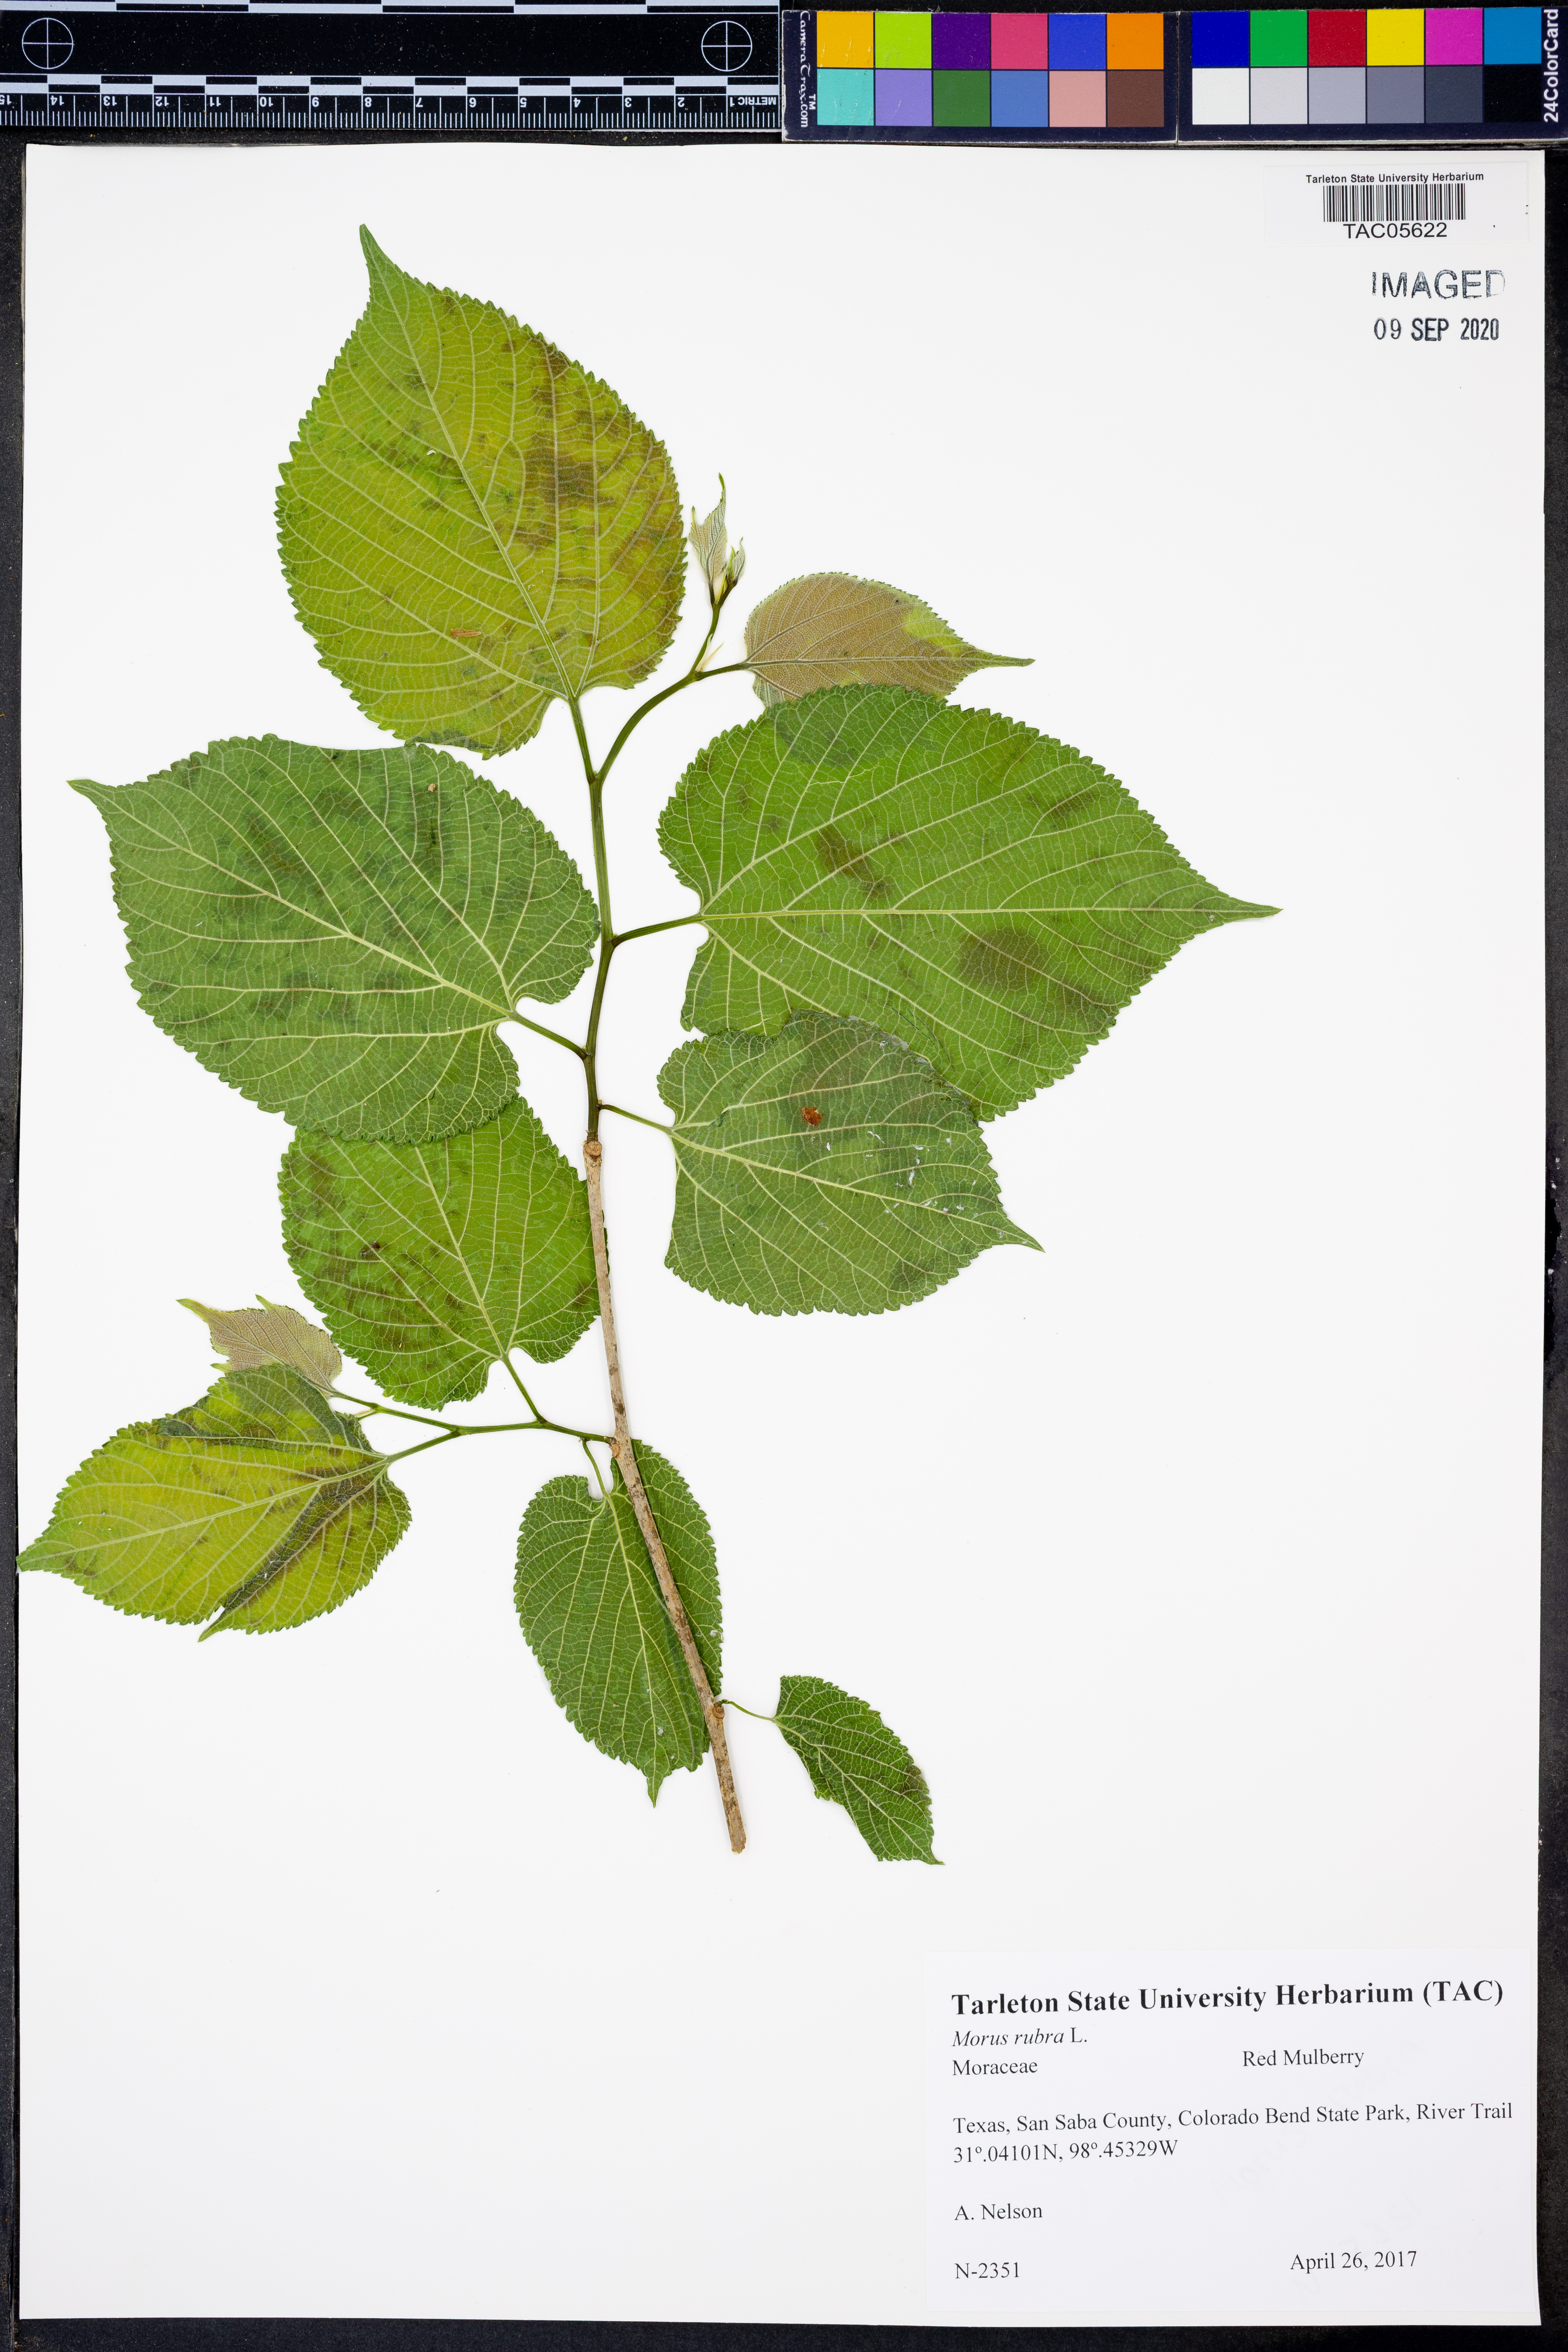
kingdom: Plantae
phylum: Tracheophyta
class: Magnoliopsida
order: Rosales
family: Moraceae
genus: Morus
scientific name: Morus rubra
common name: Red mulberry
